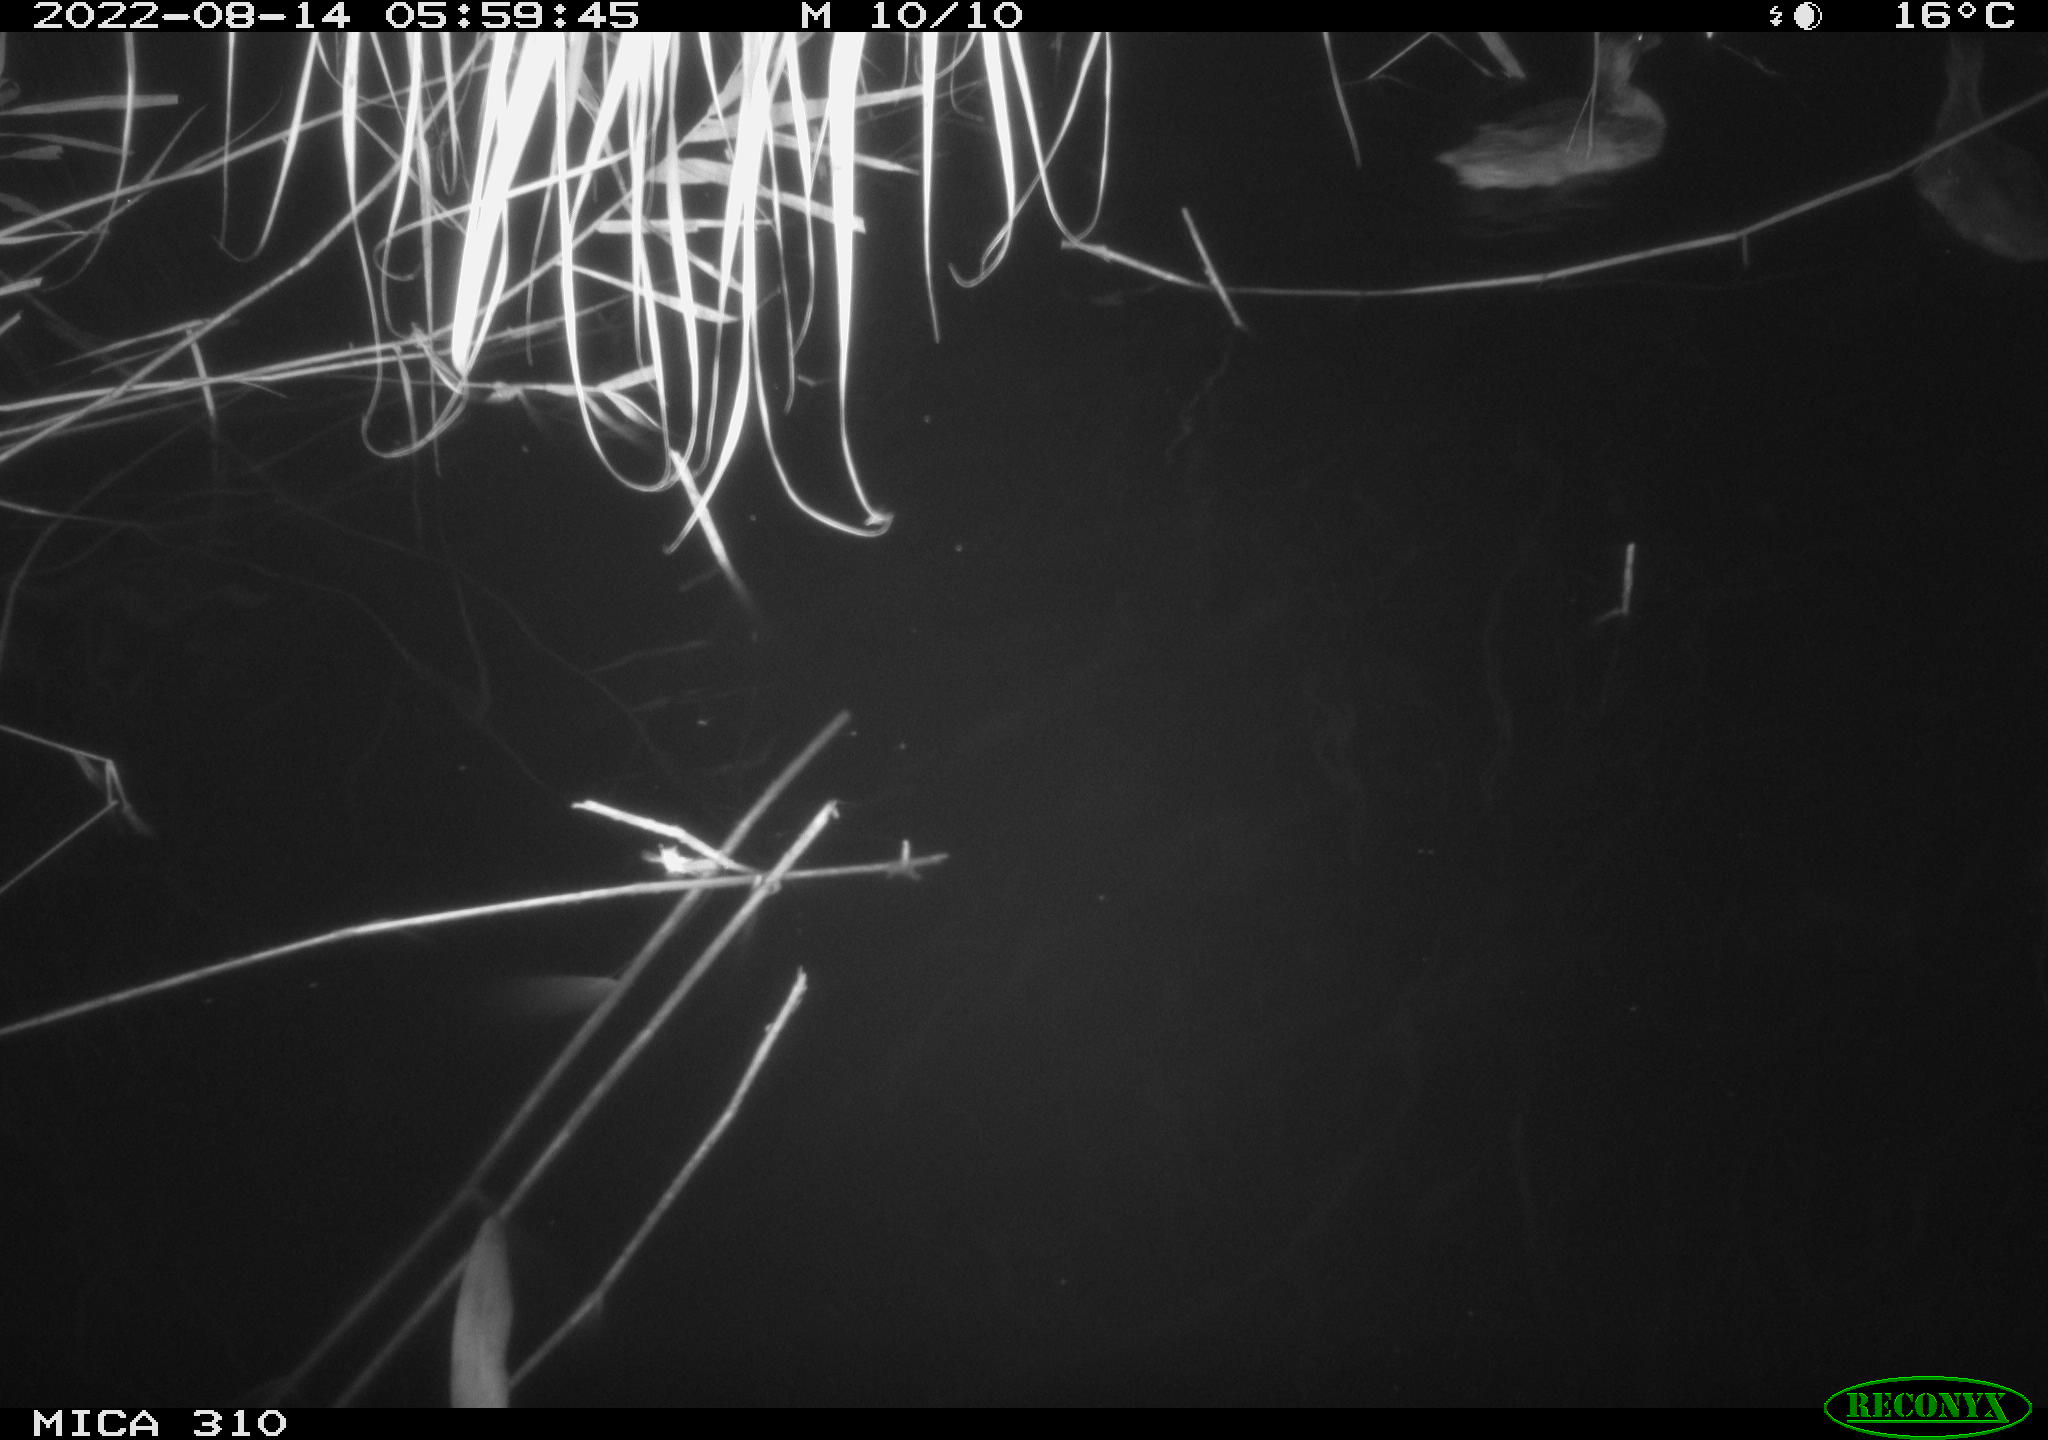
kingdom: Animalia
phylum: Chordata
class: Aves
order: Anseriformes
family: Anatidae
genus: Anas
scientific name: Anas platyrhynchos
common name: Mallard
